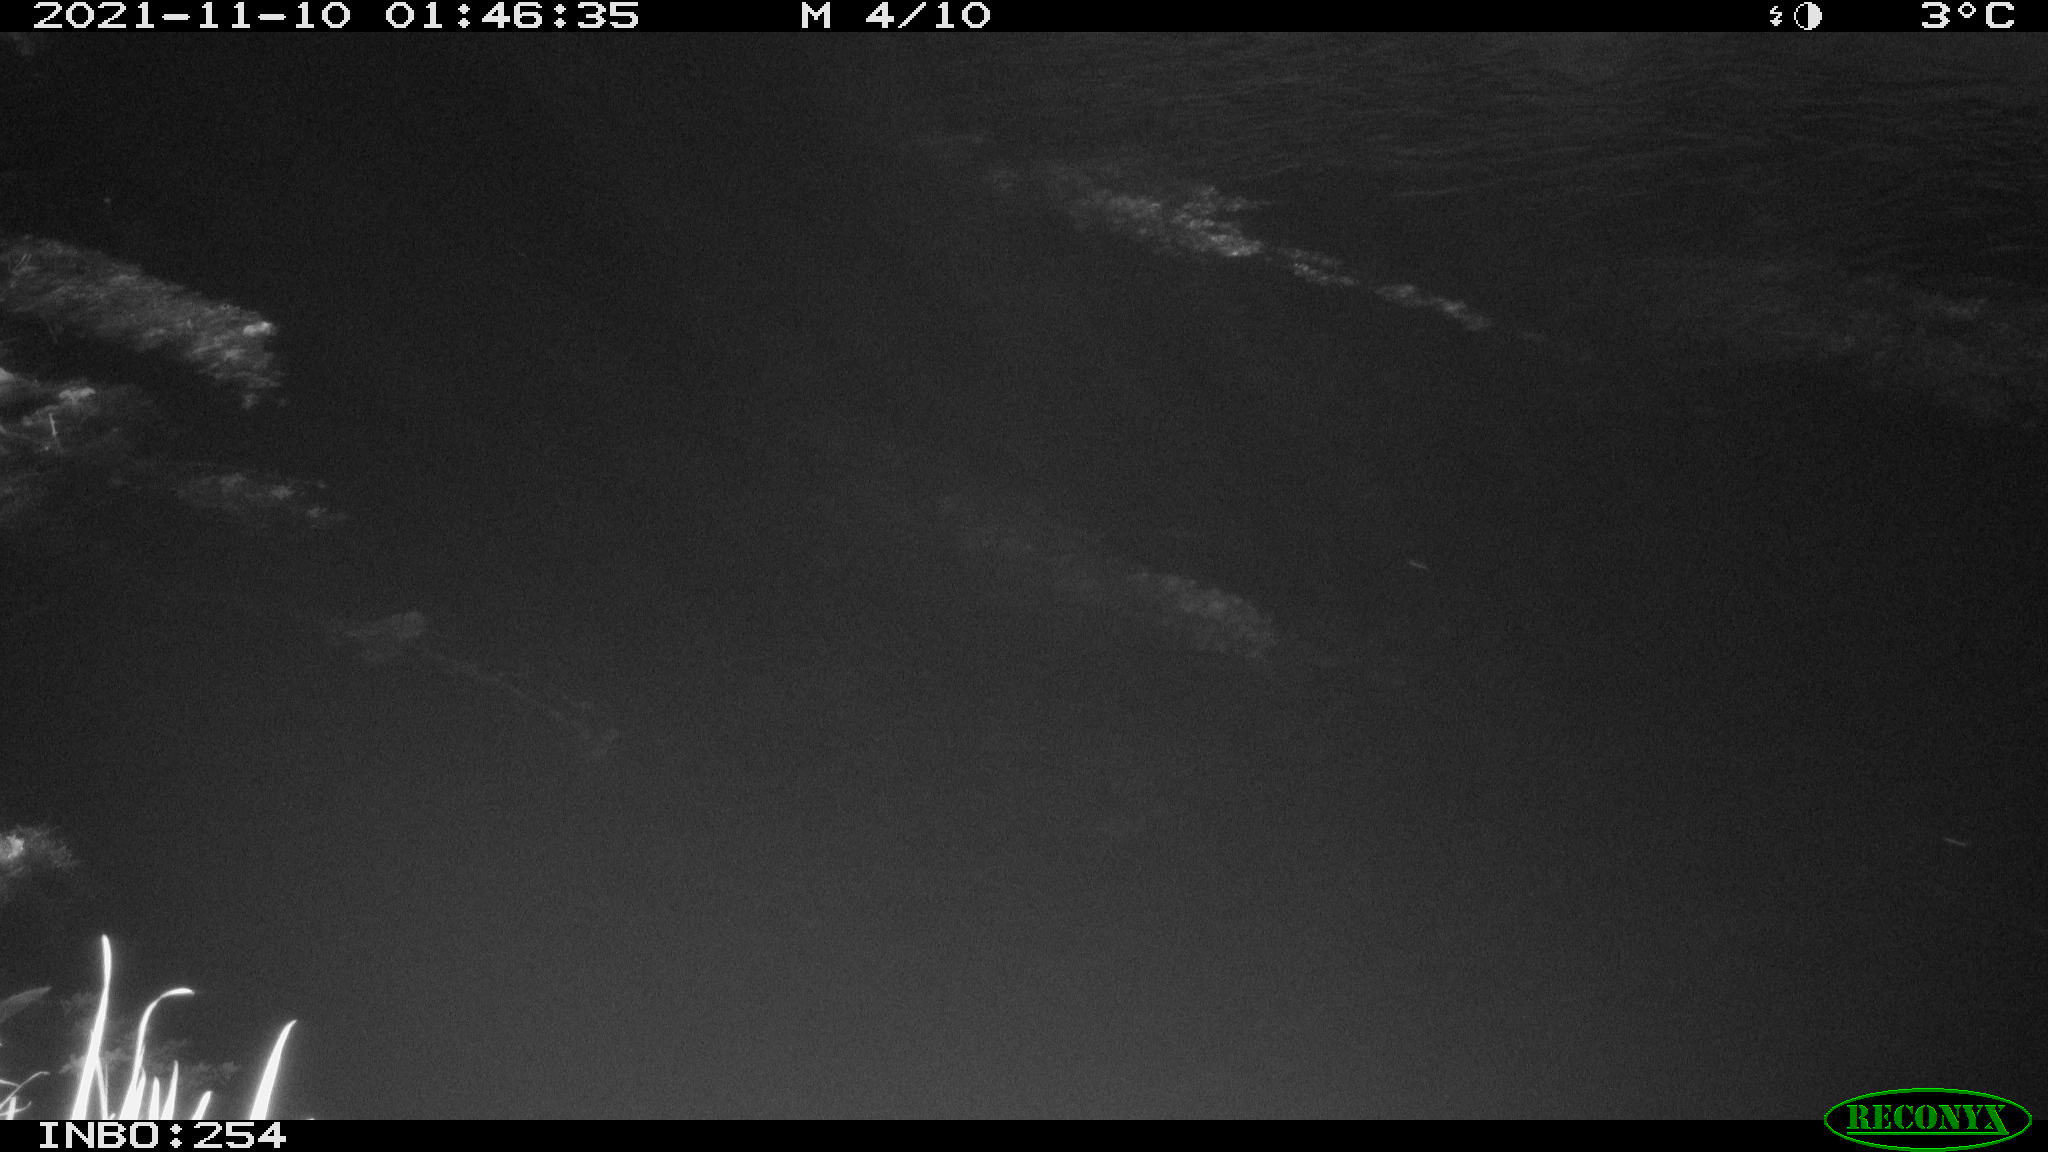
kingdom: Animalia
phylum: Chordata
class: Mammalia
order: Rodentia
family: Muridae
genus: Rattus
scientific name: Rattus norvegicus
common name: Brown rat
